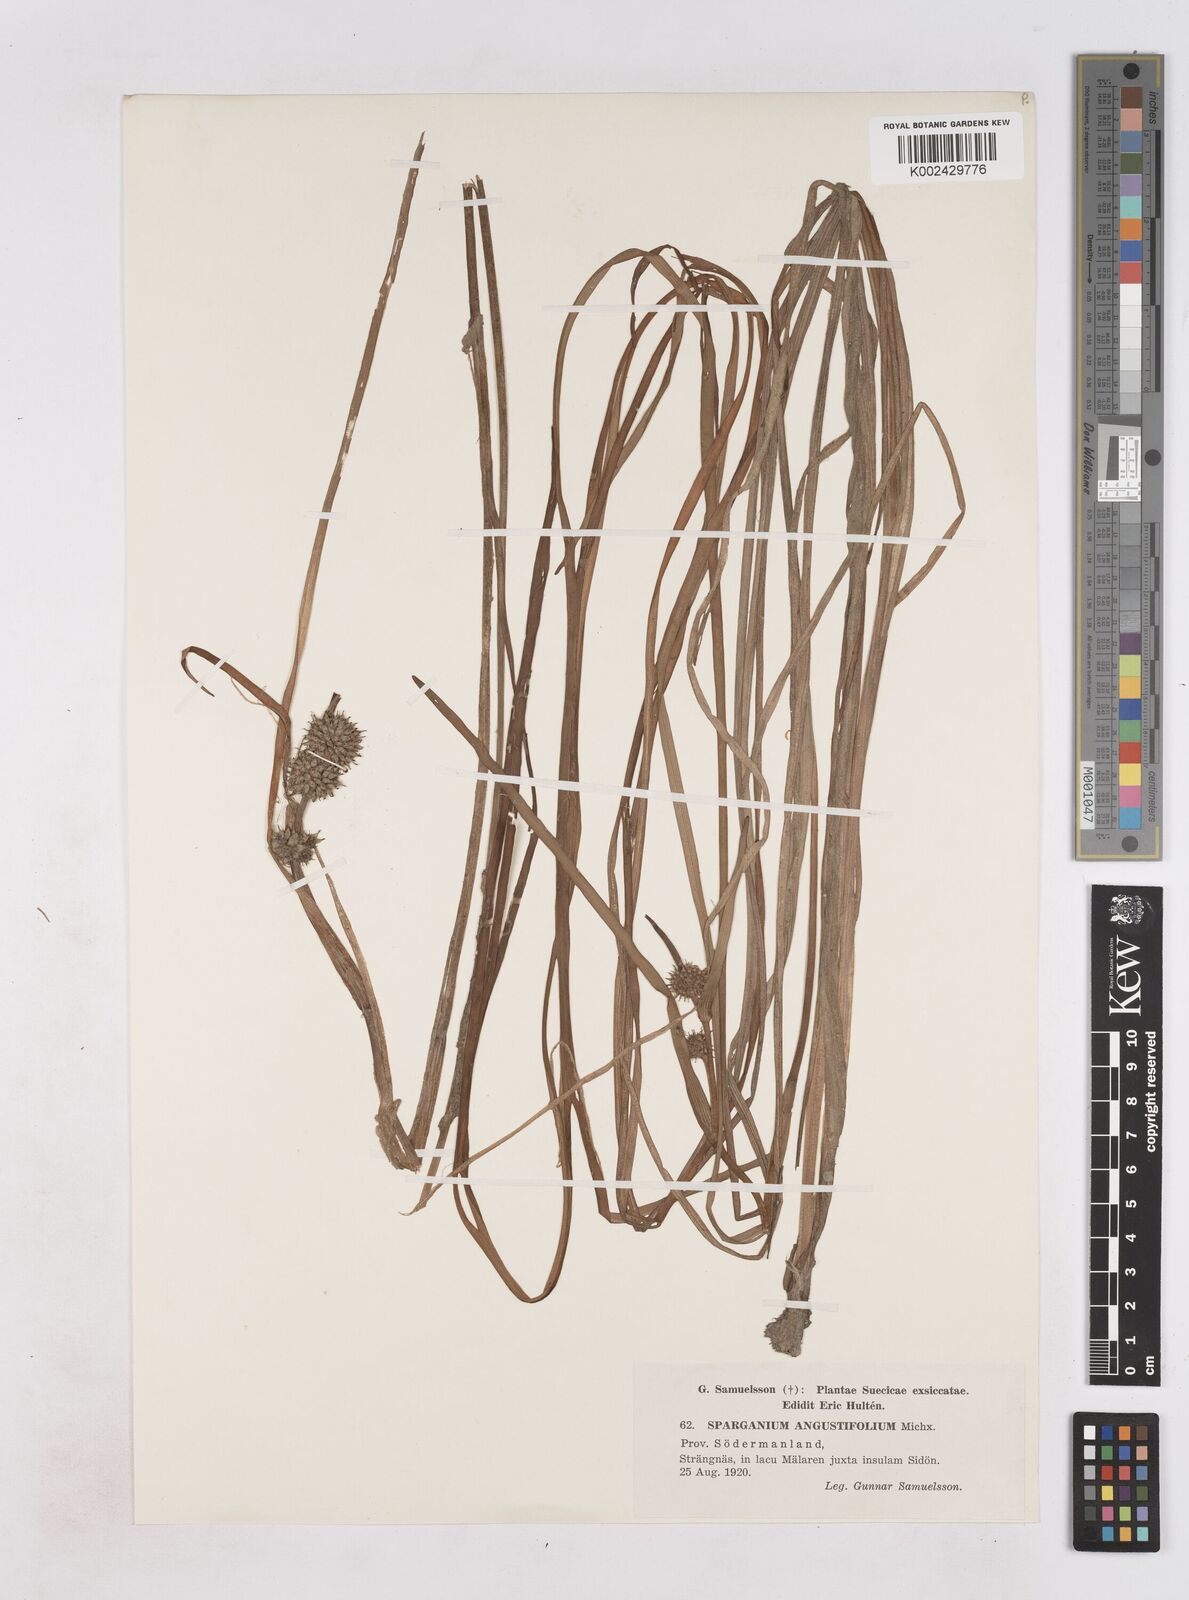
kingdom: Plantae
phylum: Tracheophyta
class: Liliopsida
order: Poales
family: Typhaceae
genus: Sparganium
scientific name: Sparganium angustifolium
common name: Floating bur-reed
